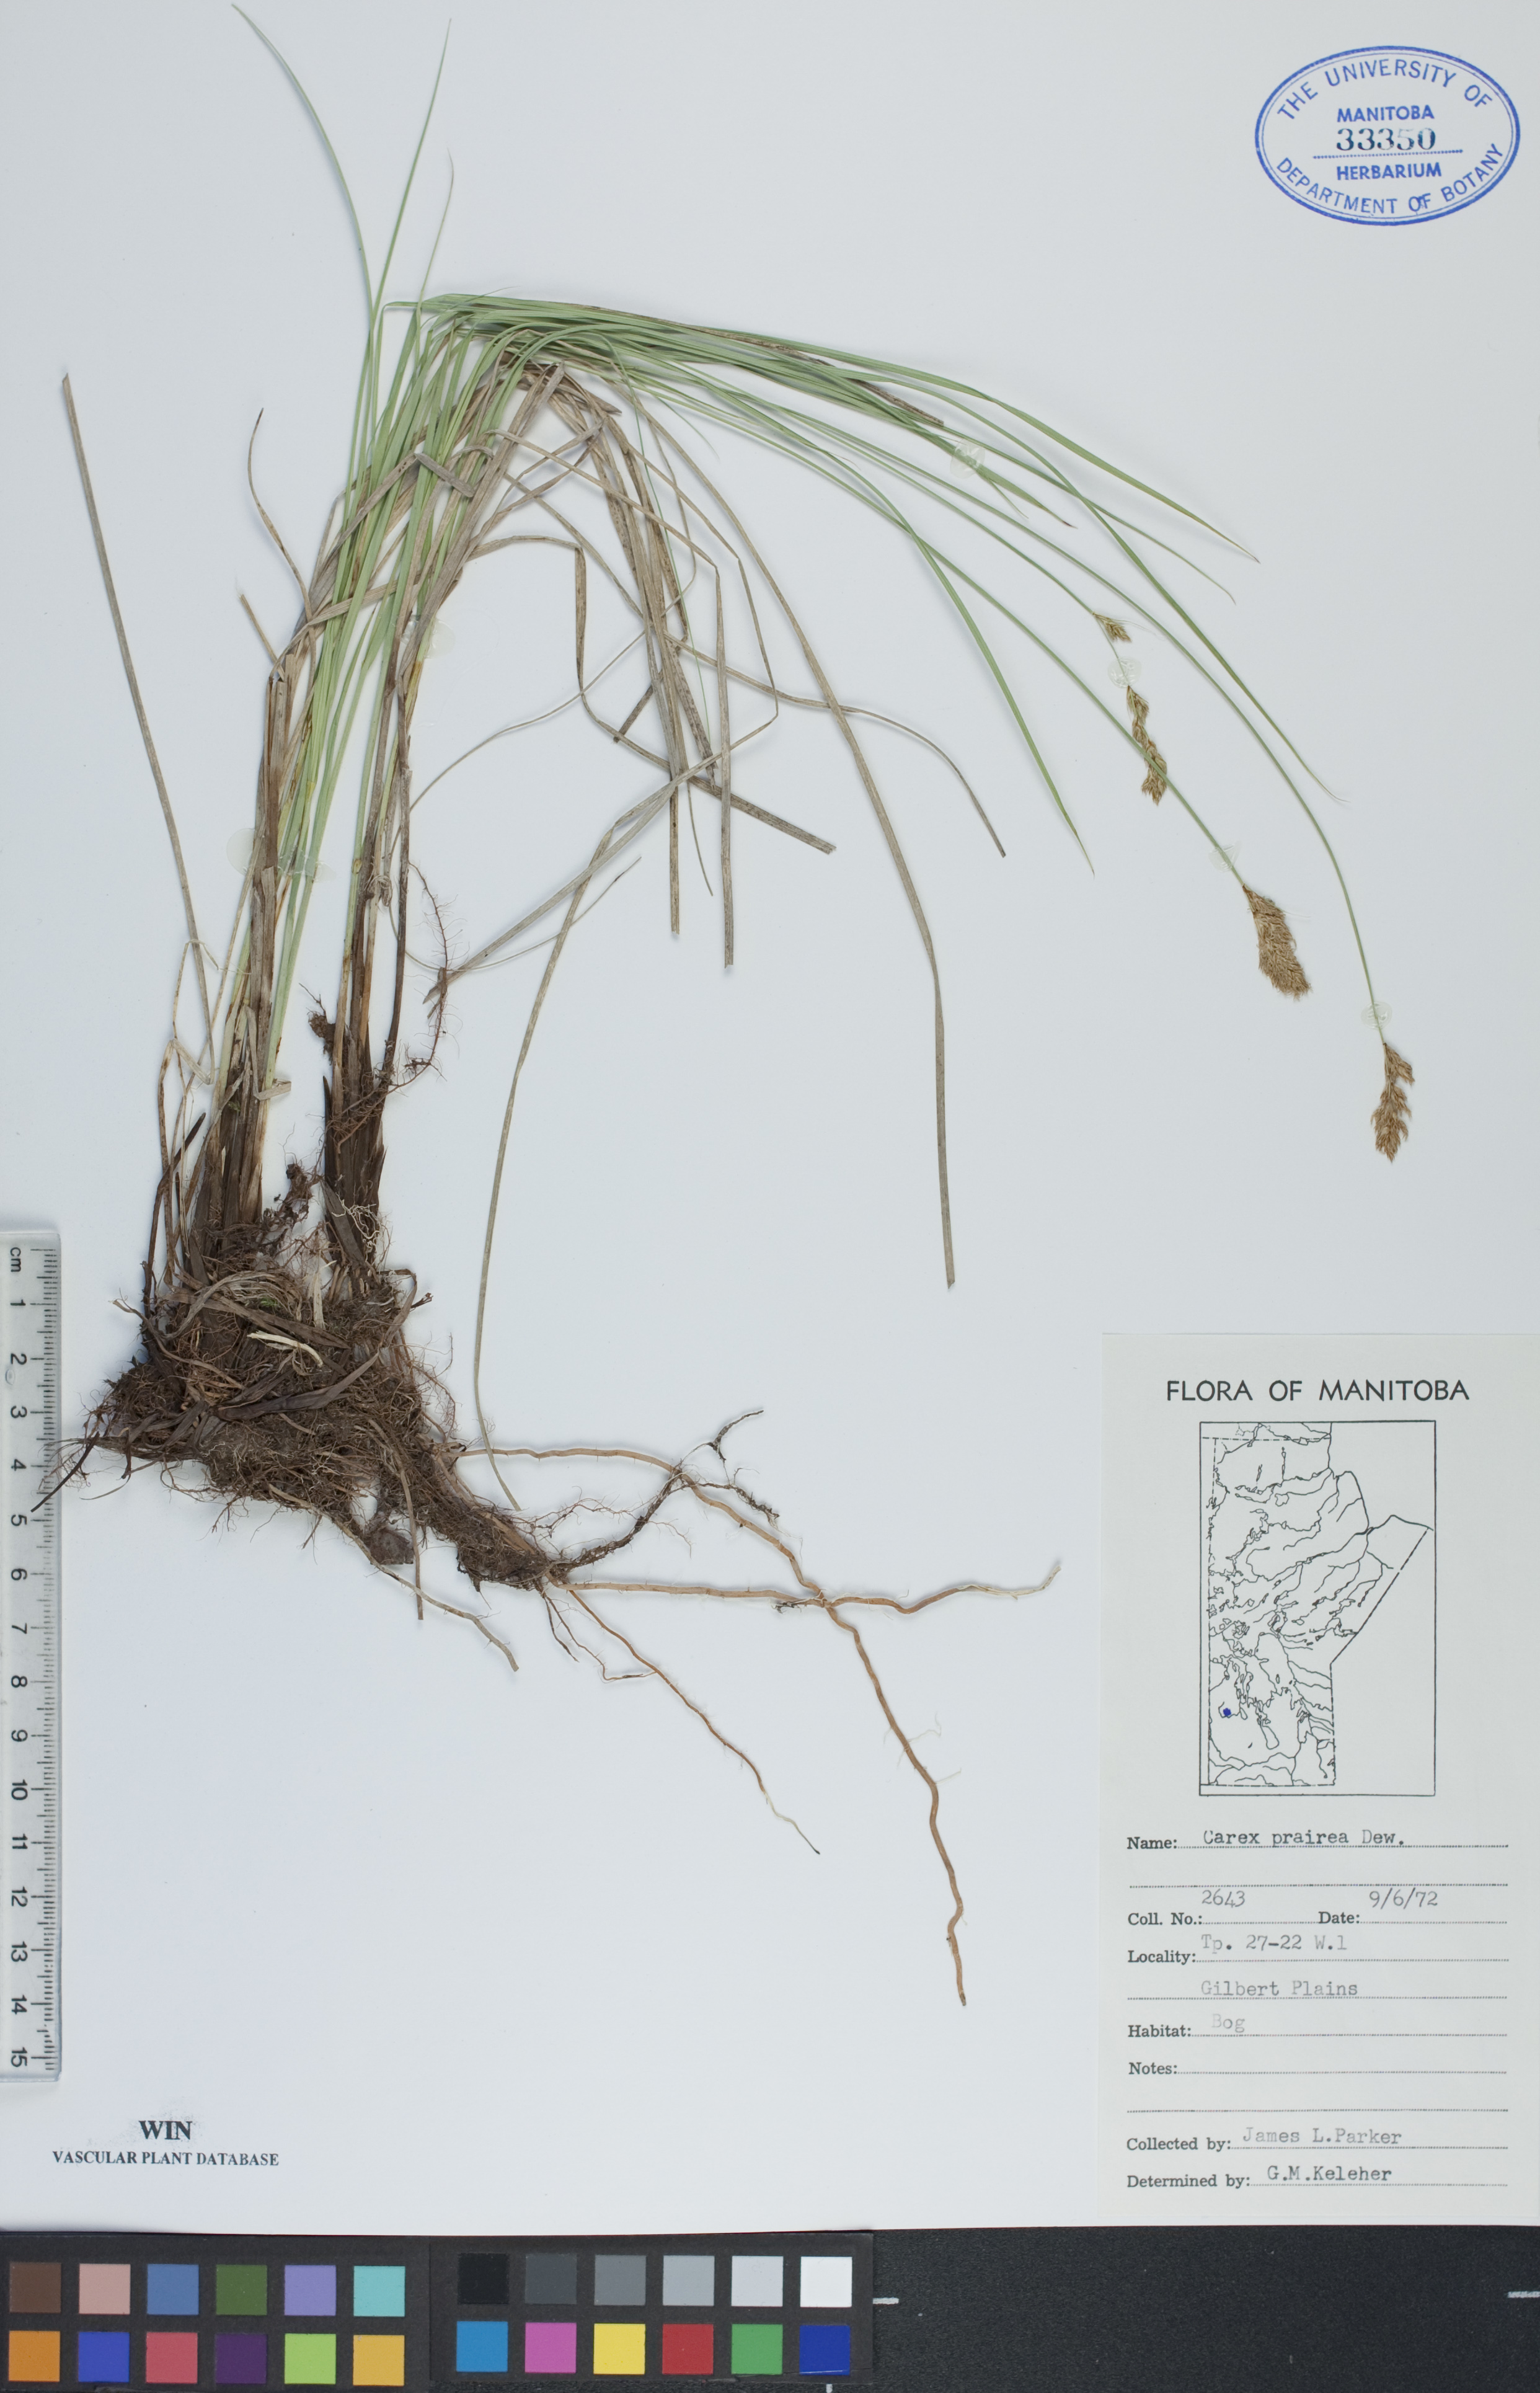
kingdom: Plantae
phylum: Tracheophyta
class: Liliopsida
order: Poales
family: Cyperaceae
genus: Carex
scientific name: Carex prairea
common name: Prairie sedge
